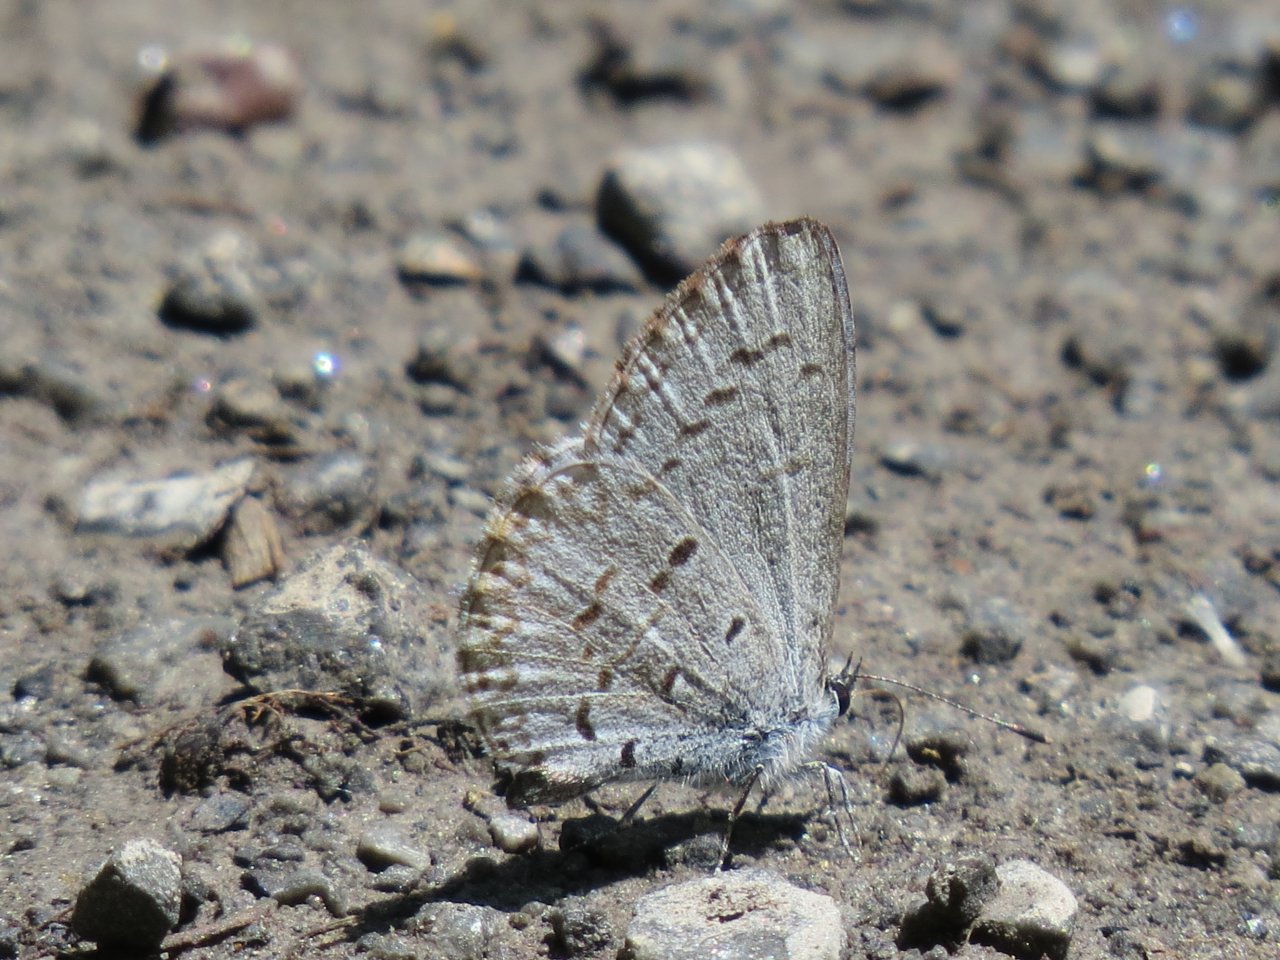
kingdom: Animalia
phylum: Arthropoda
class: Insecta
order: Lepidoptera
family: Lycaenidae
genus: Celastrina
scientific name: Celastrina lucia
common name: Northern Spring Azure
